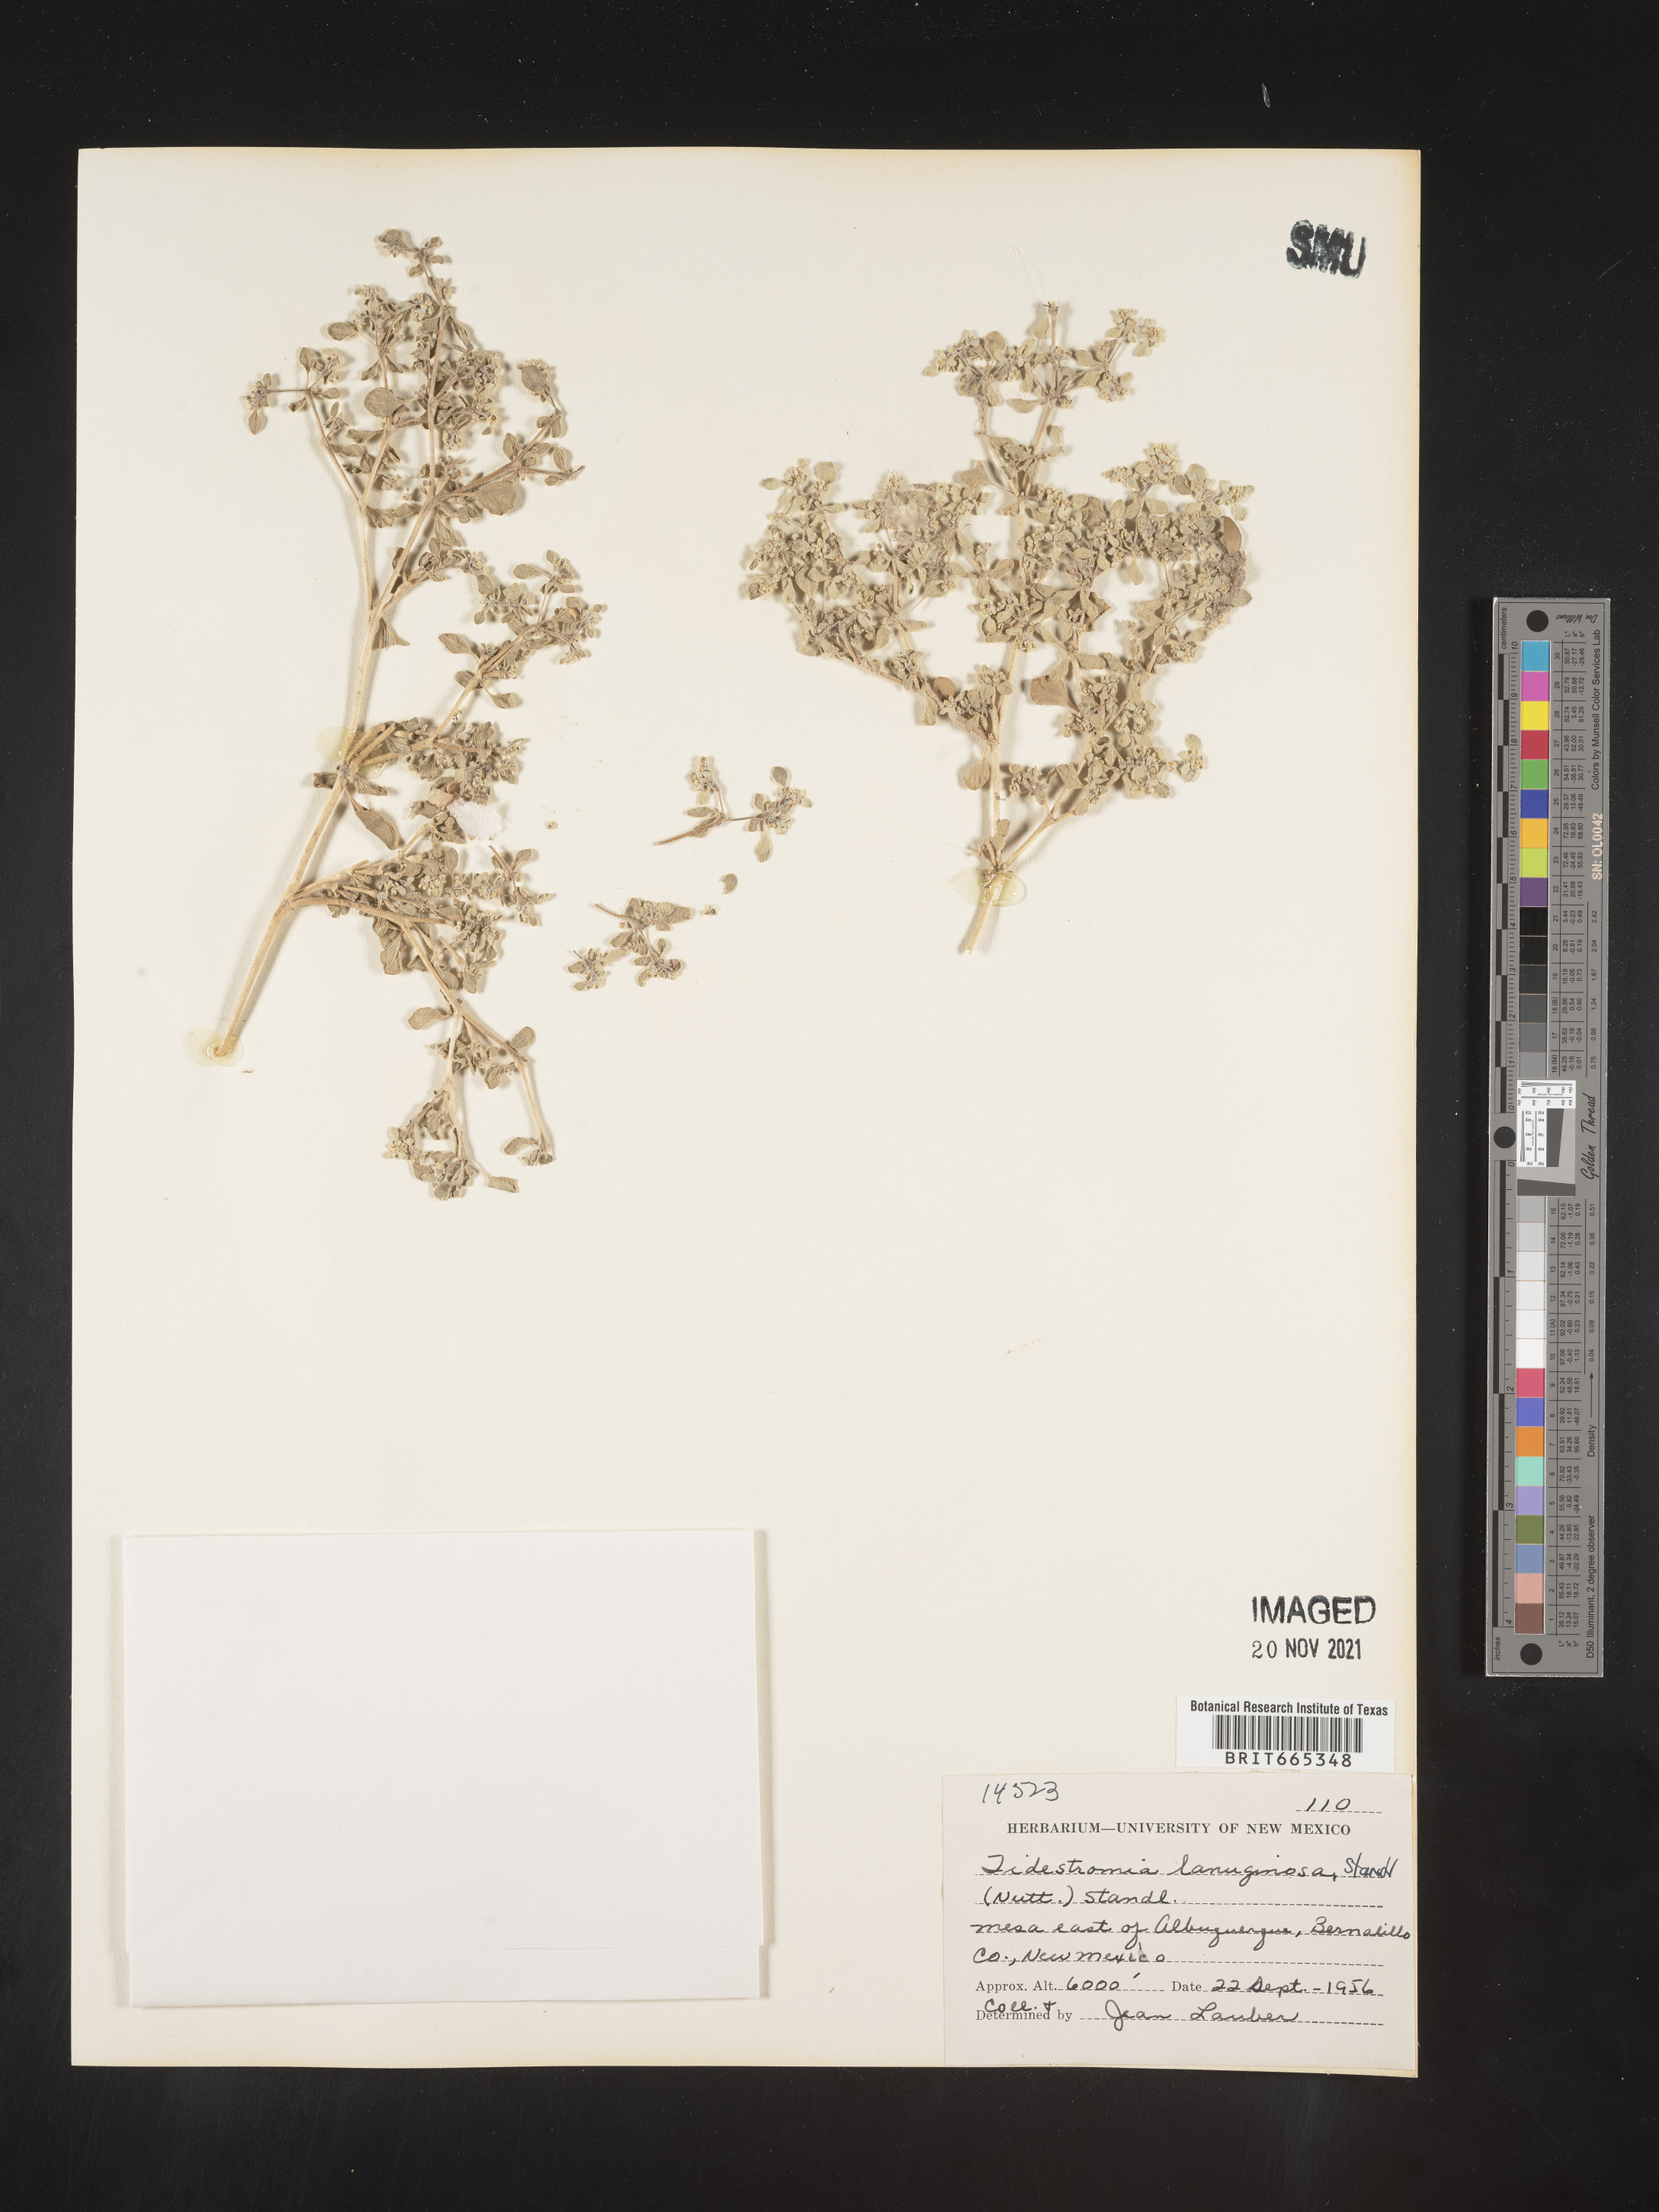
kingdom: Plantae
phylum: Tracheophyta
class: Magnoliopsida
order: Caryophyllales
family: Amaranthaceae
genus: Tidestromia
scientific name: Tidestromia lanuginosa
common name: Woolly tidestromia
